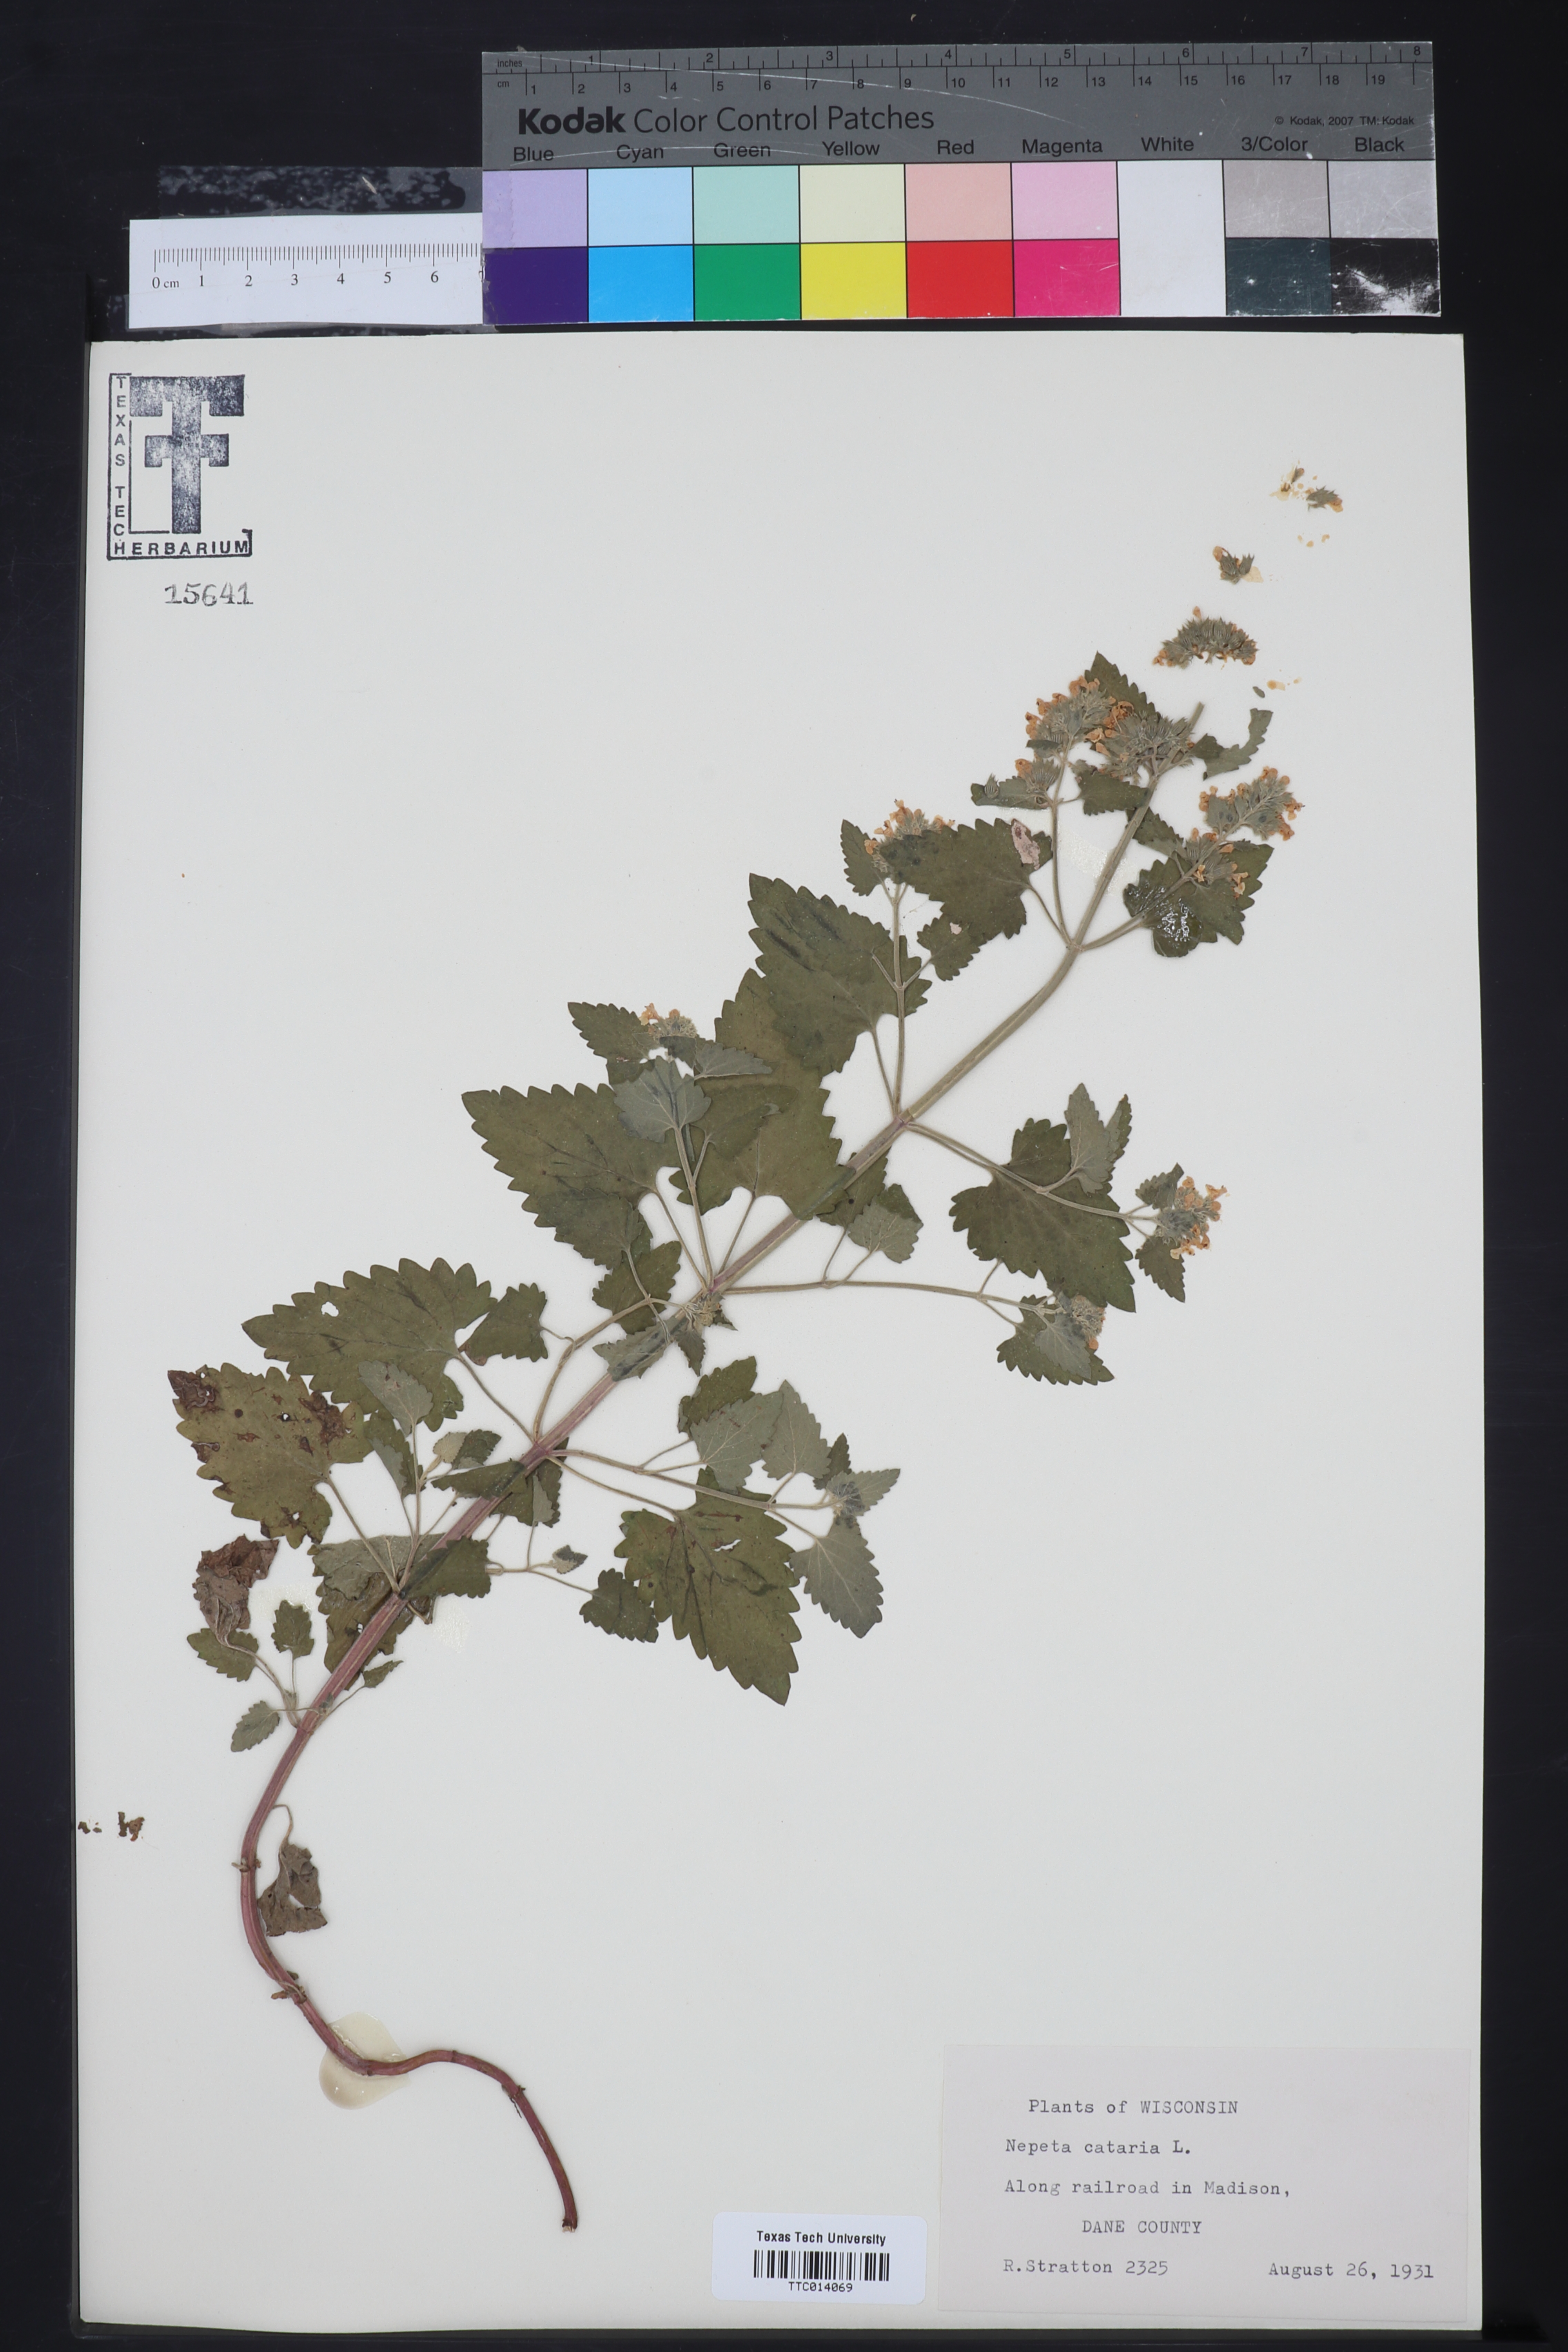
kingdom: Plantae
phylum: Tracheophyta
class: Magnoliopsida
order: Lamiales
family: Lamiaceae
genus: Nepeta
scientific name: Nepeta cataria
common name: Catnip
